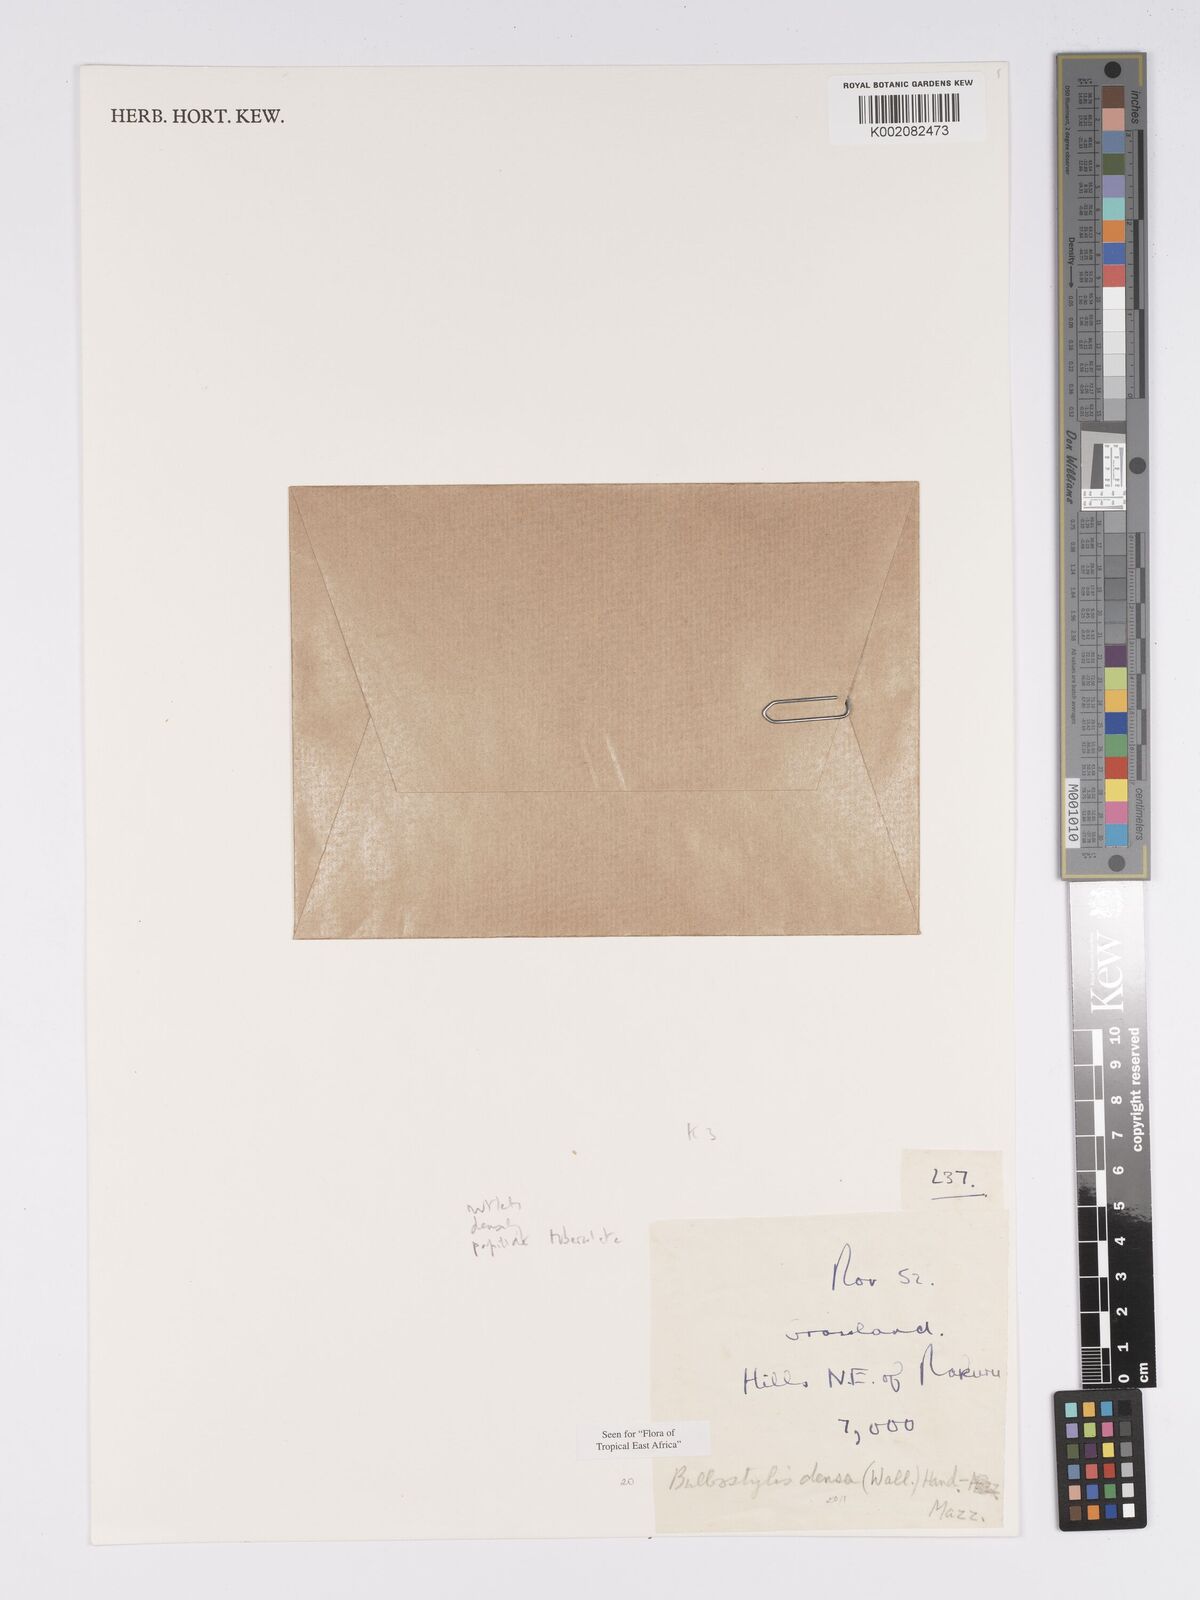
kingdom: Plantae
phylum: Tracheophyta
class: Liliopsida
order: Poales
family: Cyperaceae
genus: Bulbostylis
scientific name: Bulbostylis densa
